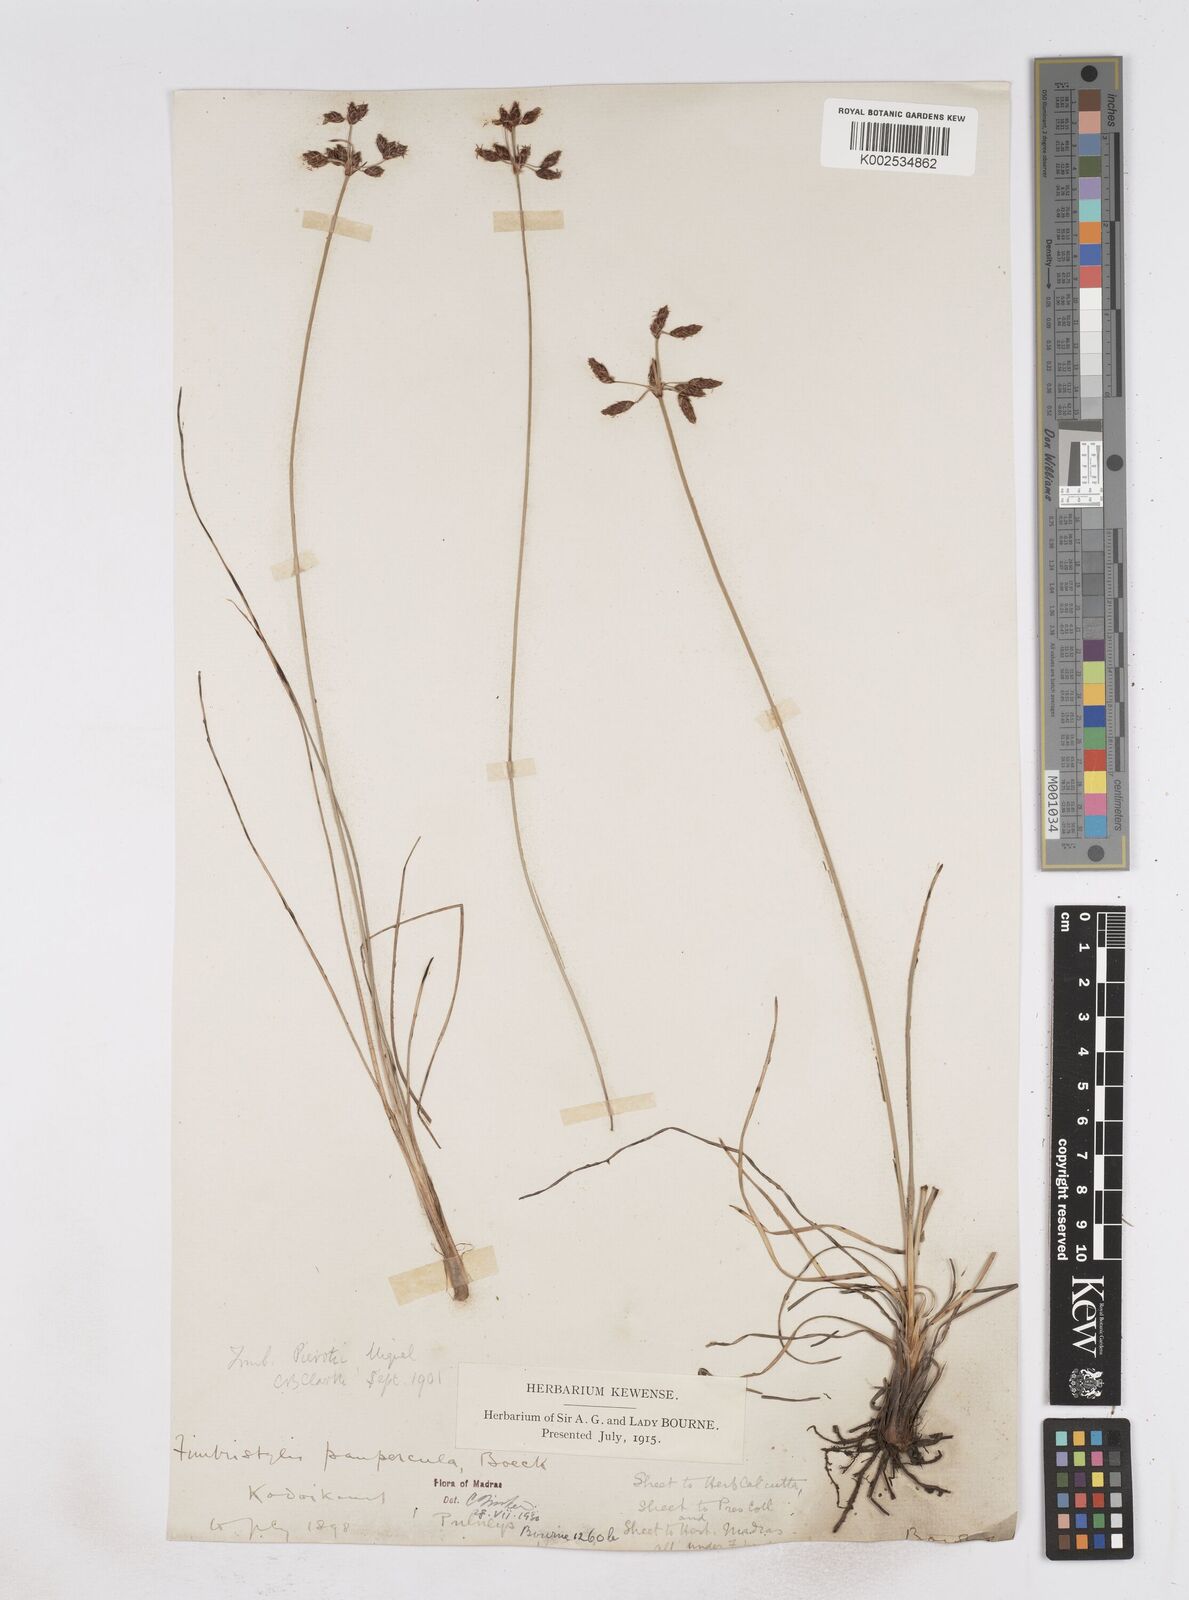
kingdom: Plantae
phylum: Tracheophyta
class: Liliopsida
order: Poales
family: Cyperaceae
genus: Fimbristylis
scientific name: Fimbristylis paupercula
